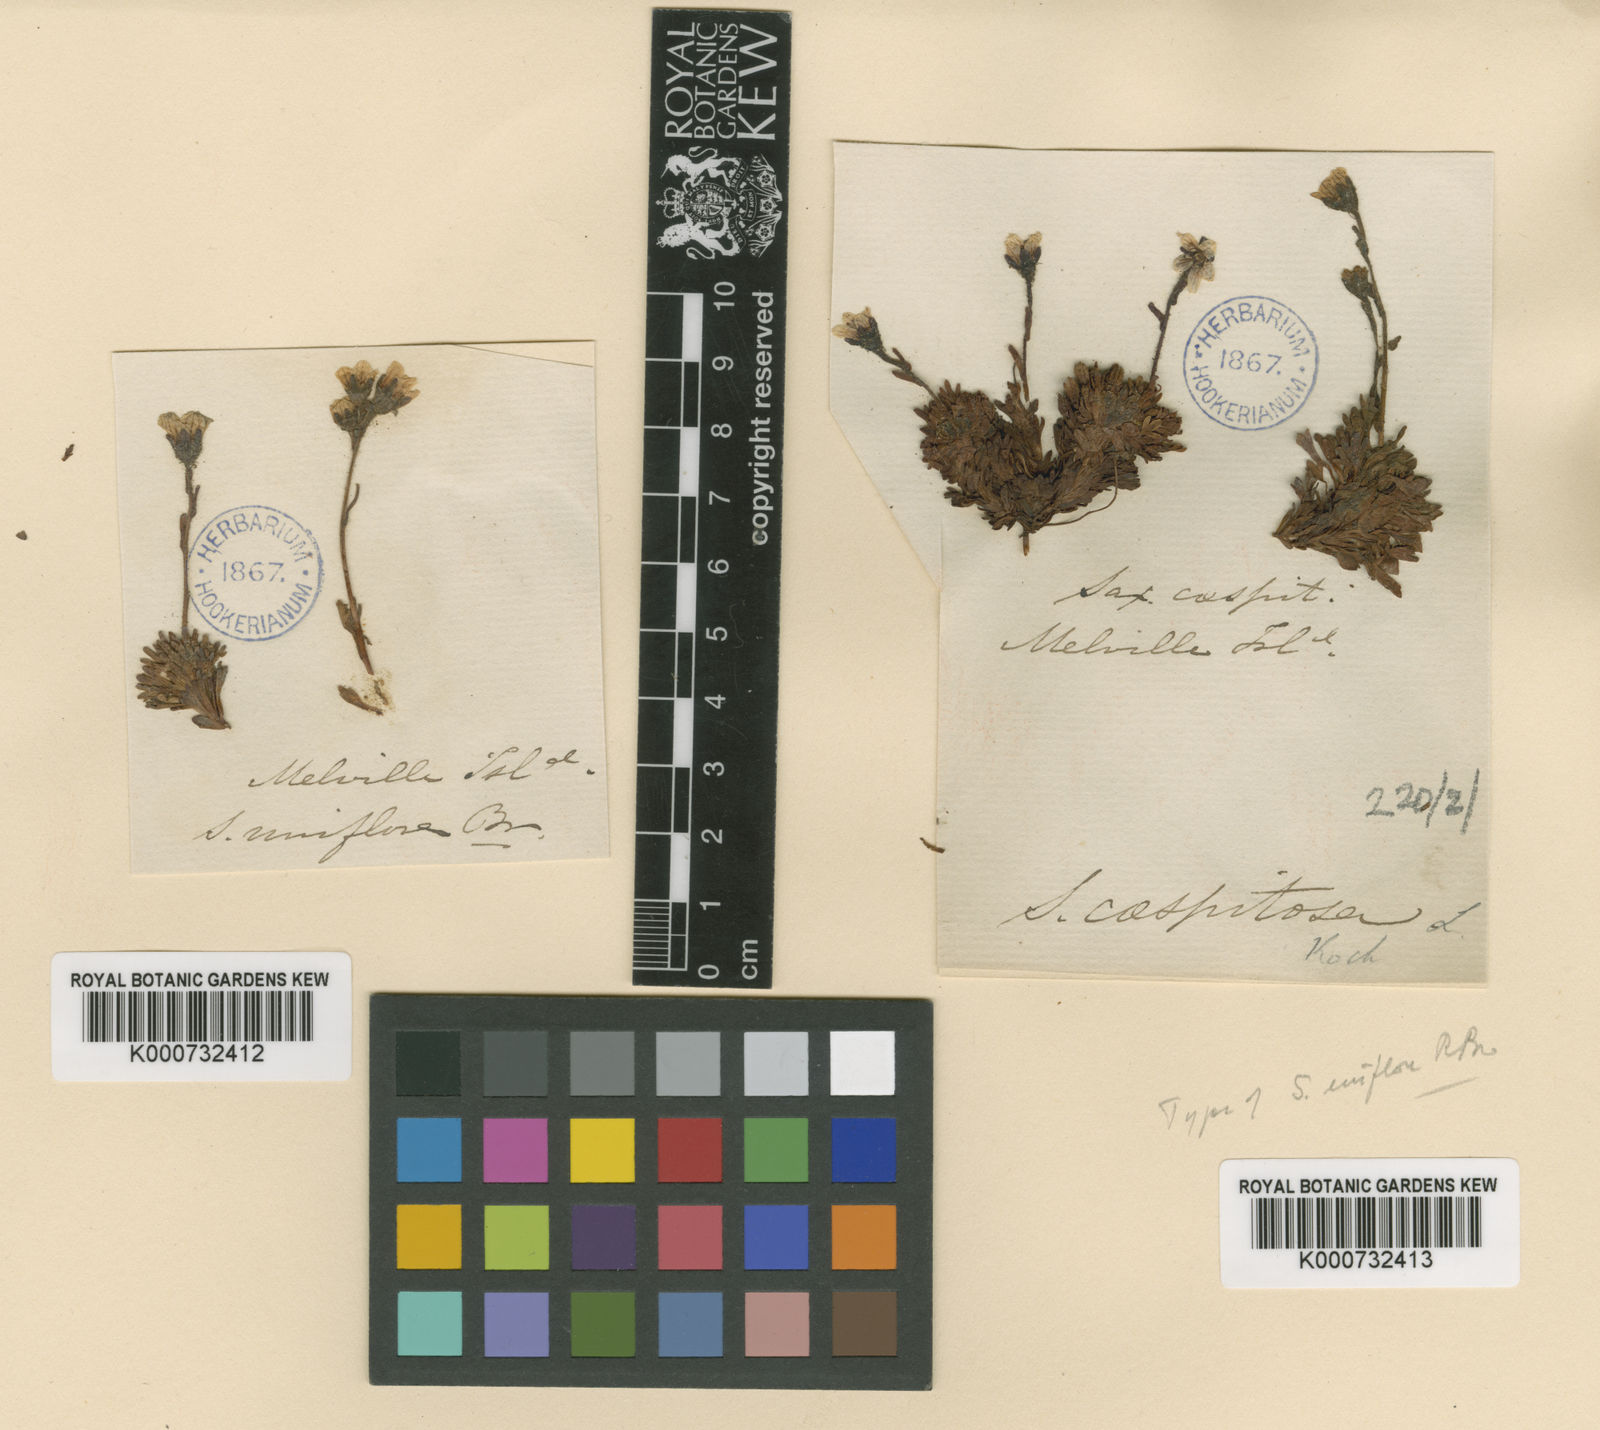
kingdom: Plantae
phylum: Tracheophyta
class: Magnoliopsida
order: Saxifragales
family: Saxifragaceae
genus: Saxifraga
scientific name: Saxifraga cespitosa
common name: Tufted saxifrage
